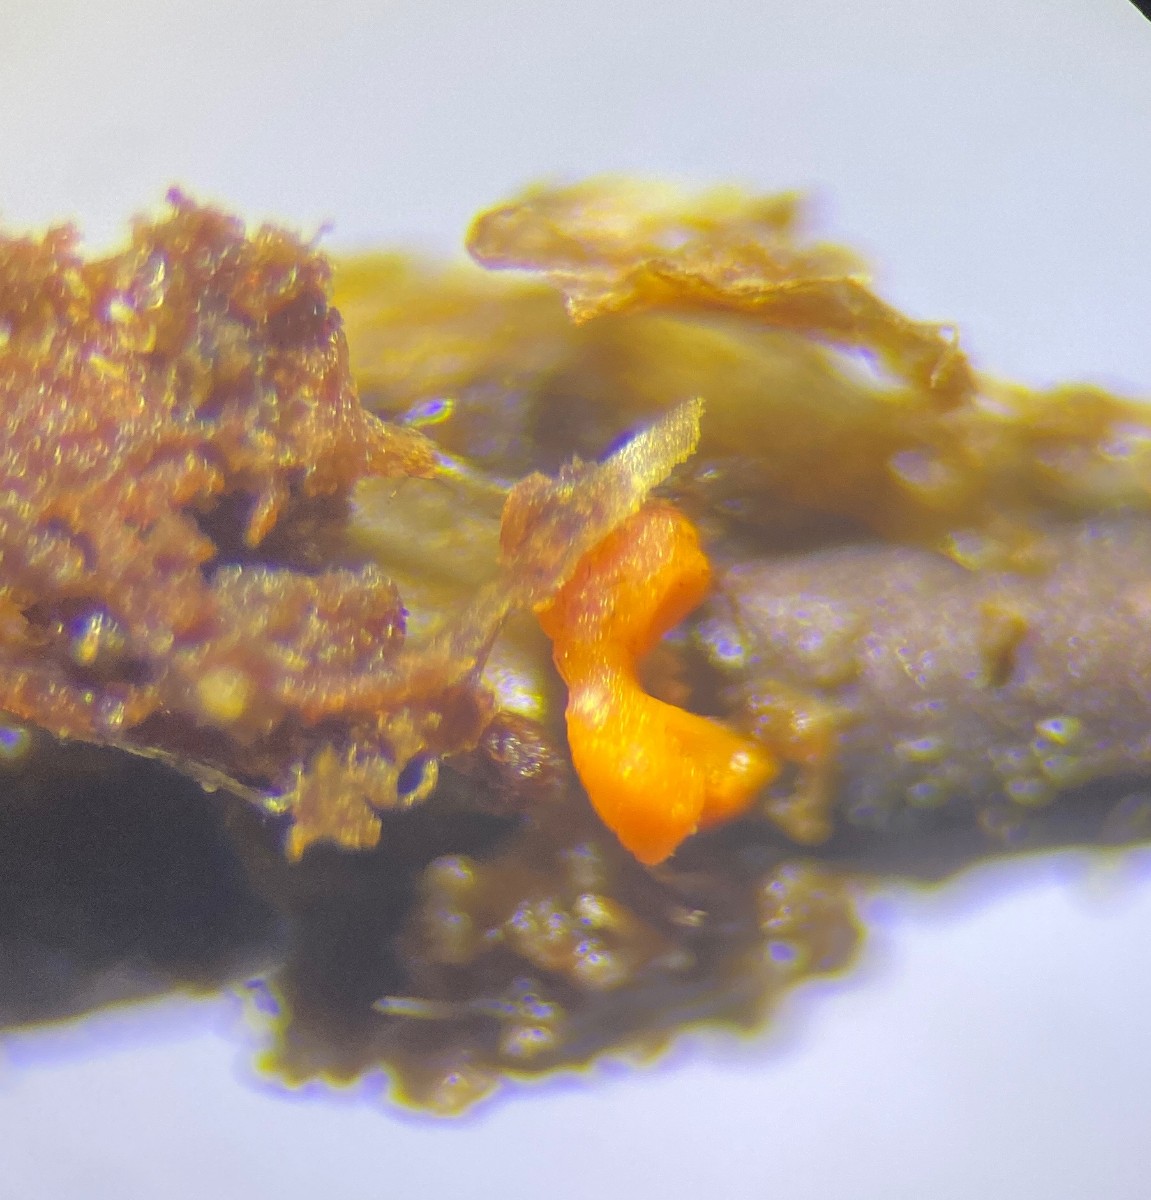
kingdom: Protozoa
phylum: Mycetozoa
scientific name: Mycetozoa
